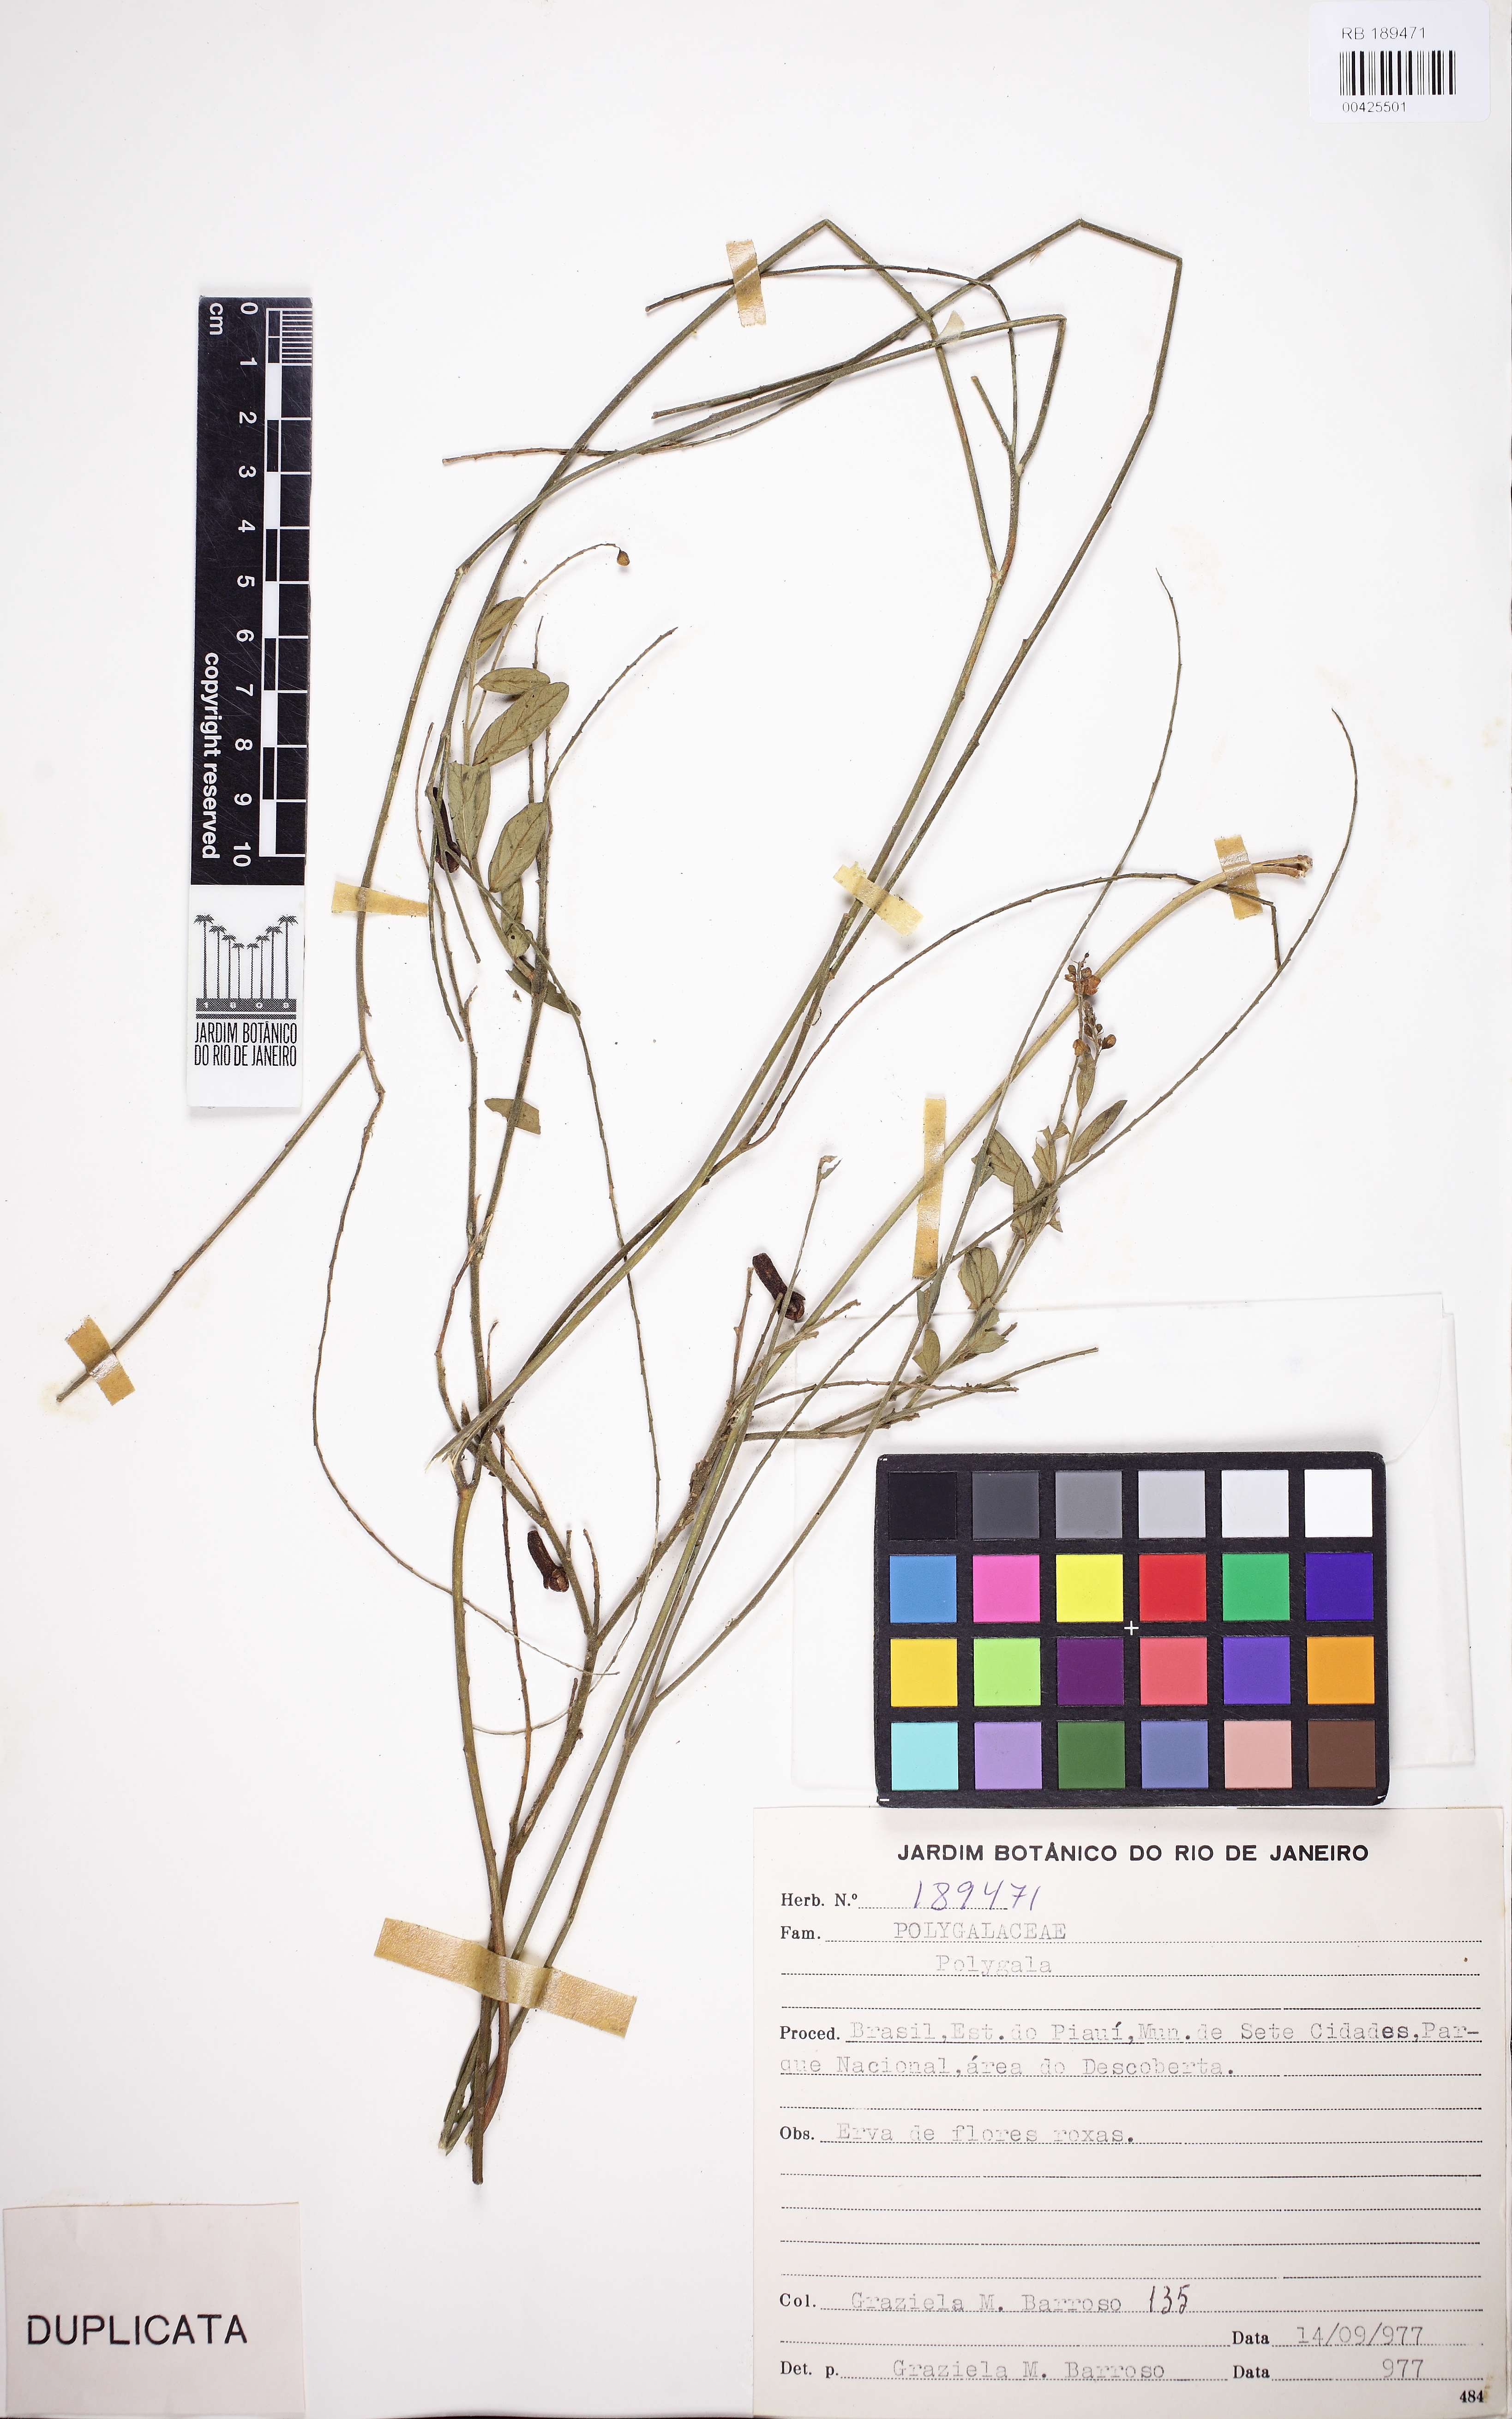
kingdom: Plantae
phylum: Tracheophyta
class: Magnoliopsida
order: Fabales
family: Polygalaceae
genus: Asemeia
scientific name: Asemeia
